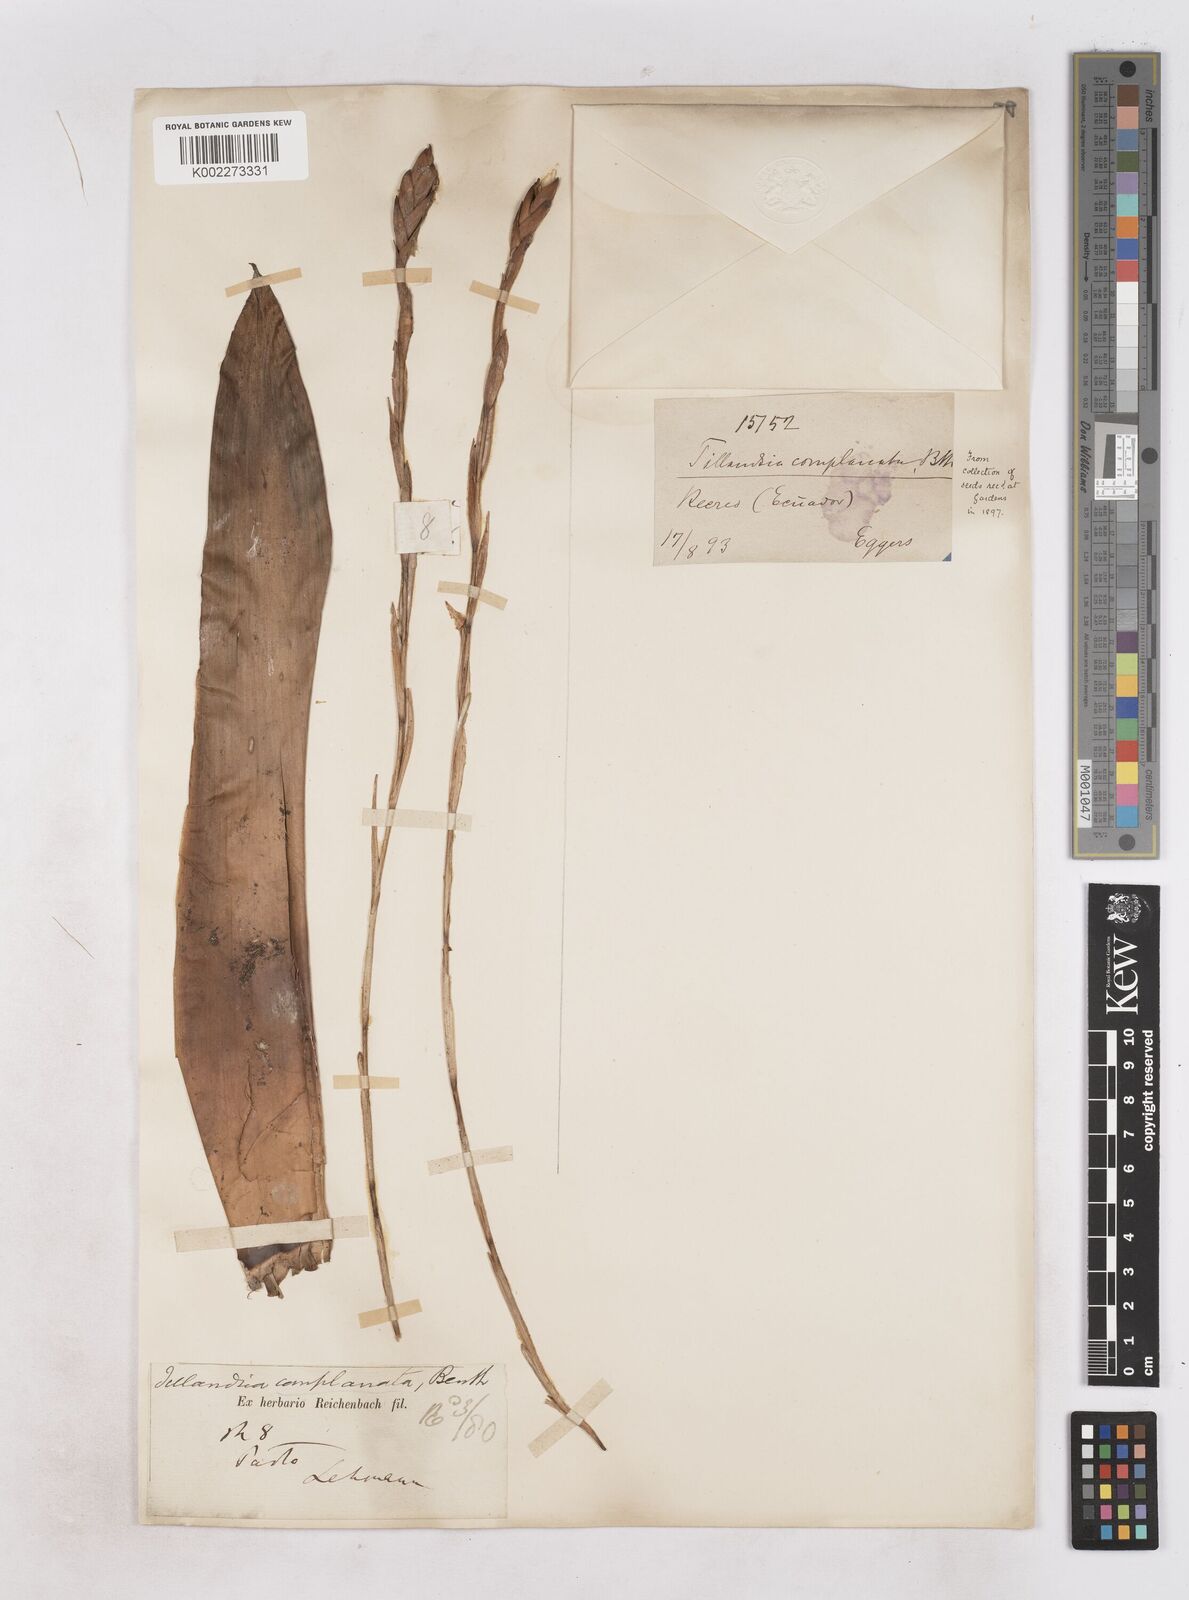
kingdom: Plantae
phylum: Tracheophyta
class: Liliopsida
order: Poales
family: Bromeliaceae
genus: Tillandsia
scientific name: Tillandsia complanata
